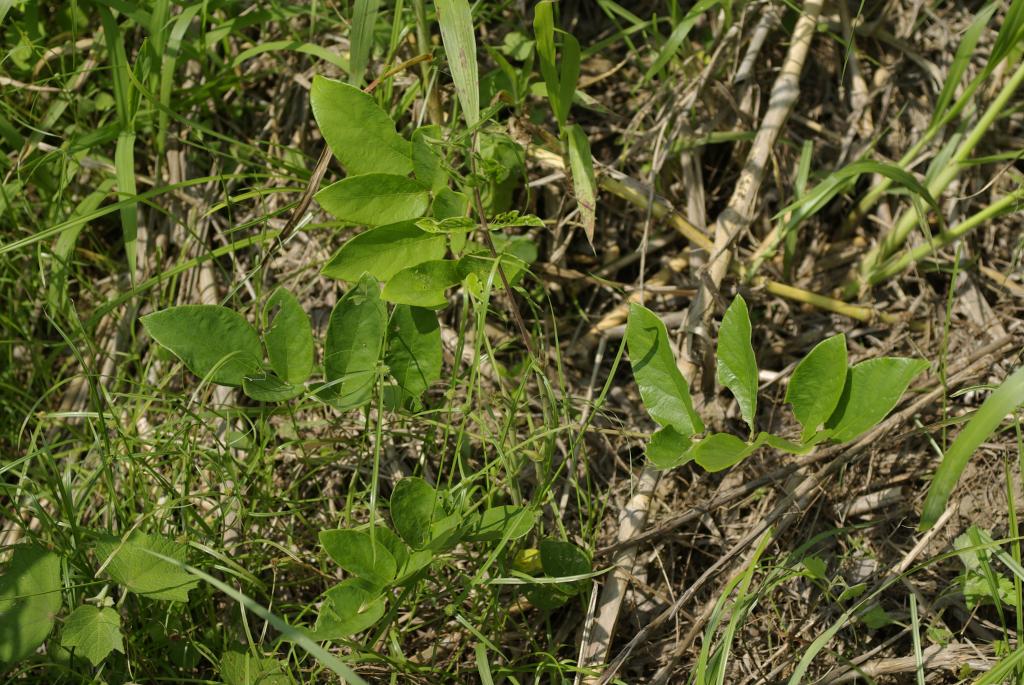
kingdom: Plantae
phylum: Tracheophyta
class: Magnoliopsida
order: Fabales
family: Fabaceae
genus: Uraria
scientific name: Uraria crinita
